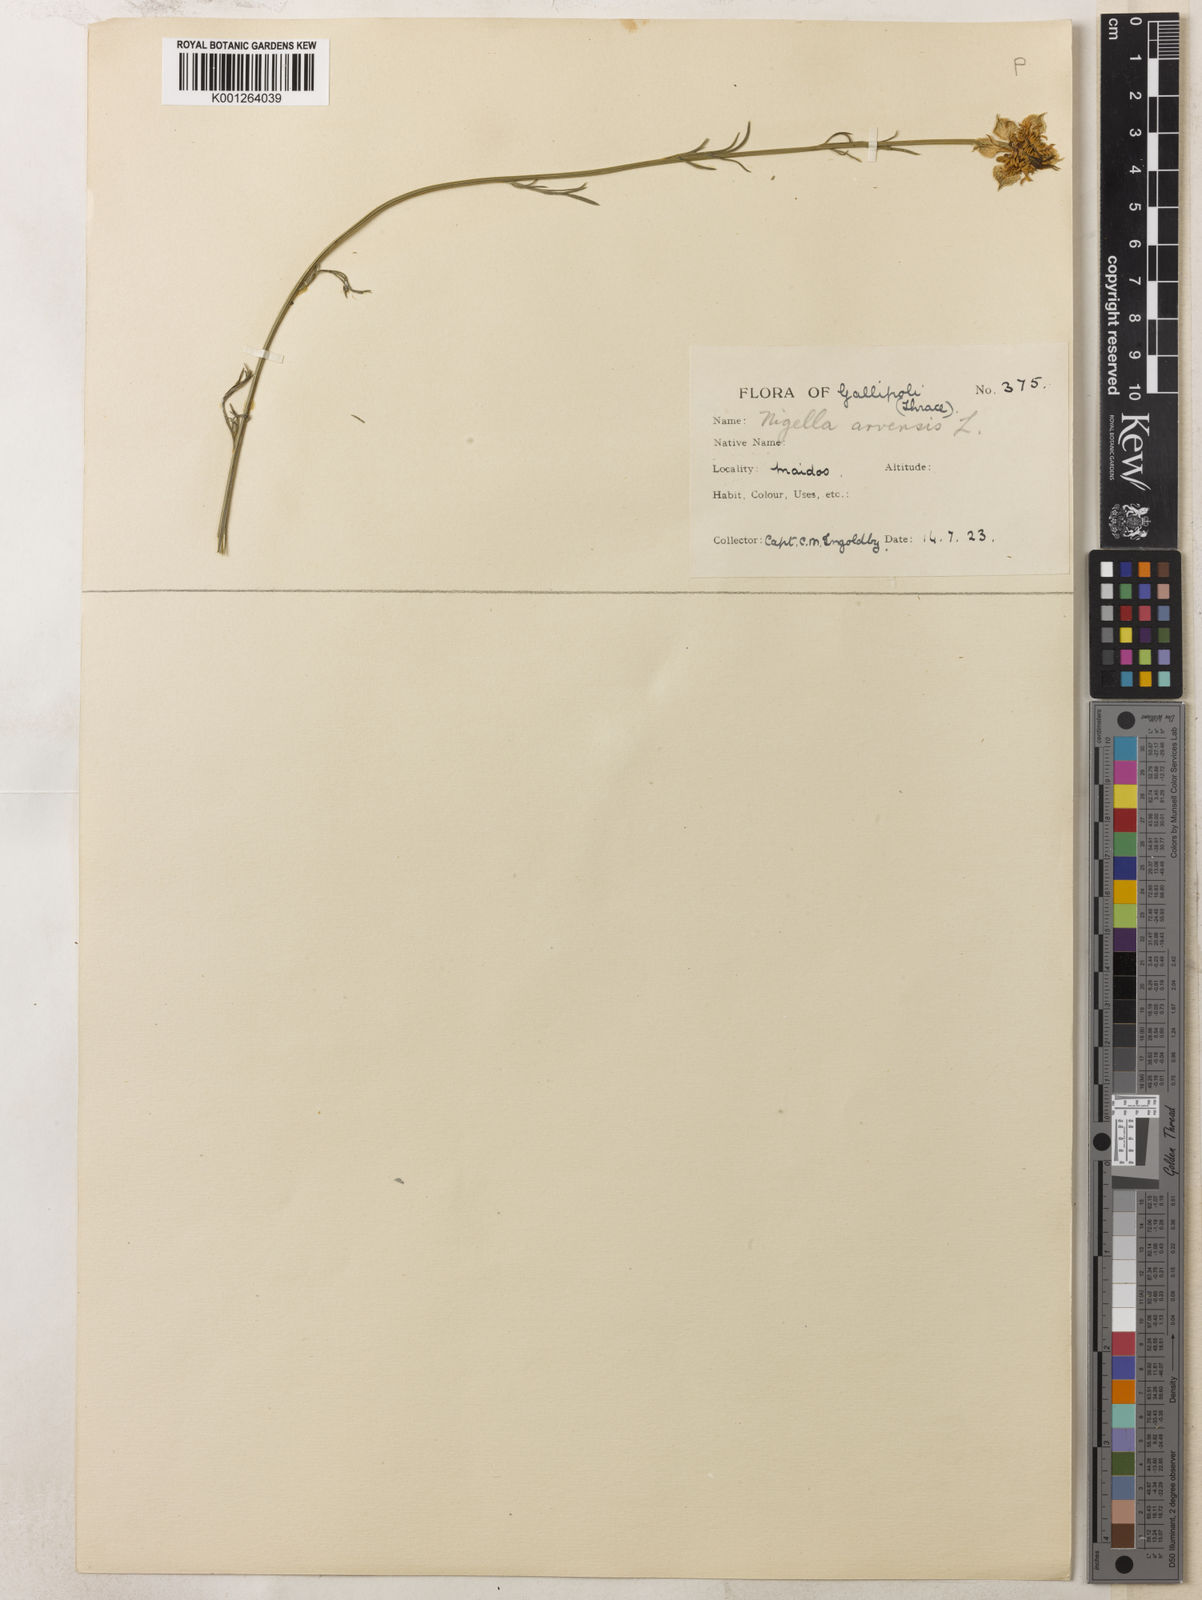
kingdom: Plantae
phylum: Tracheophyta
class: Magnoliopsida
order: Ranunculales
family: Ranunculaceae
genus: Nigella
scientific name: Nigella arvensis
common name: Wild fennel-flower
